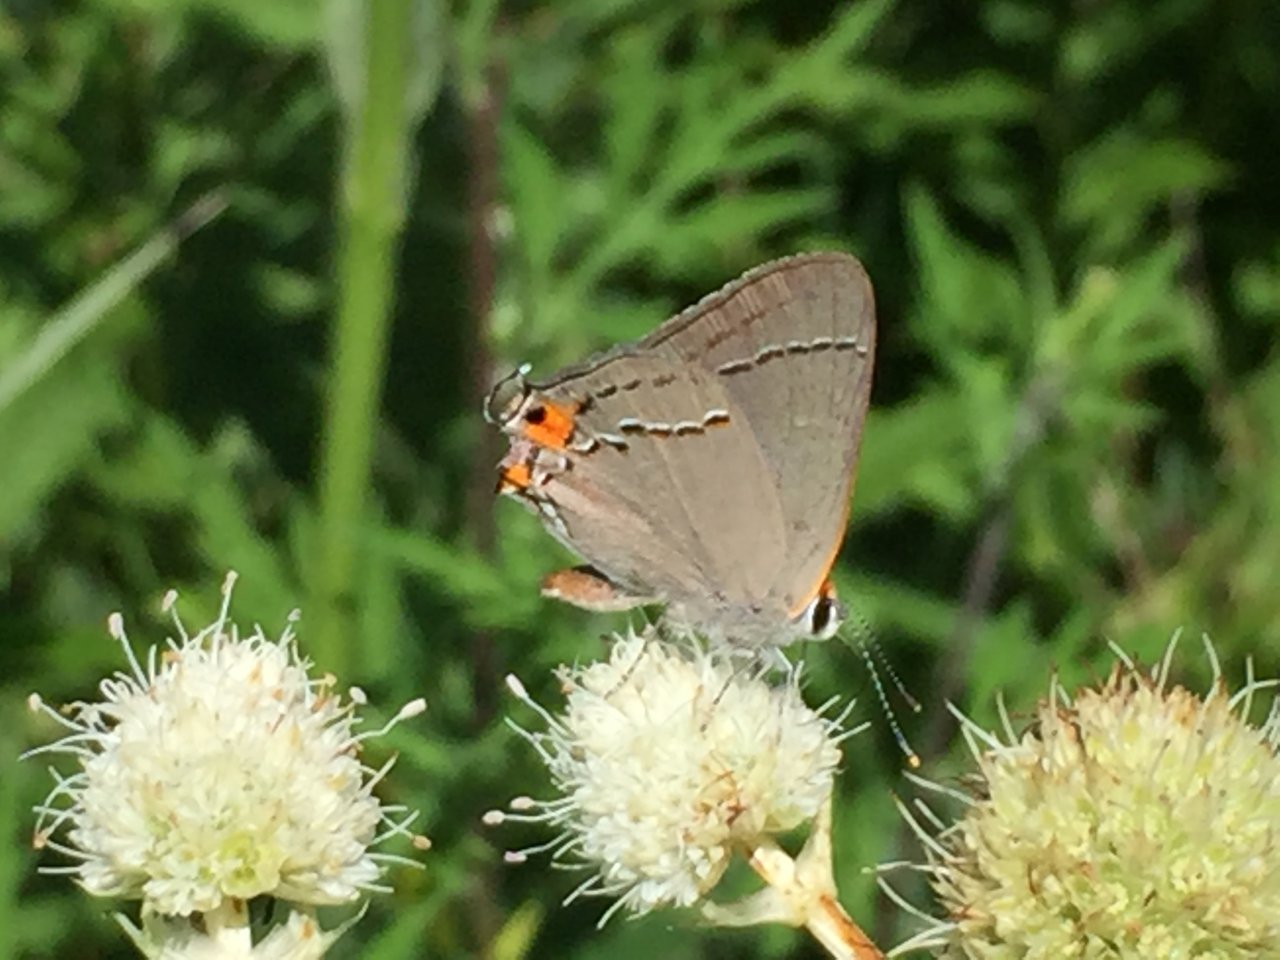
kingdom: Animalia
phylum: Arthropoda
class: Insecta
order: Lepidoptera
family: Lycaenidae
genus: Strymon
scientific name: Strymon melinus
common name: Gray Hairstreak
